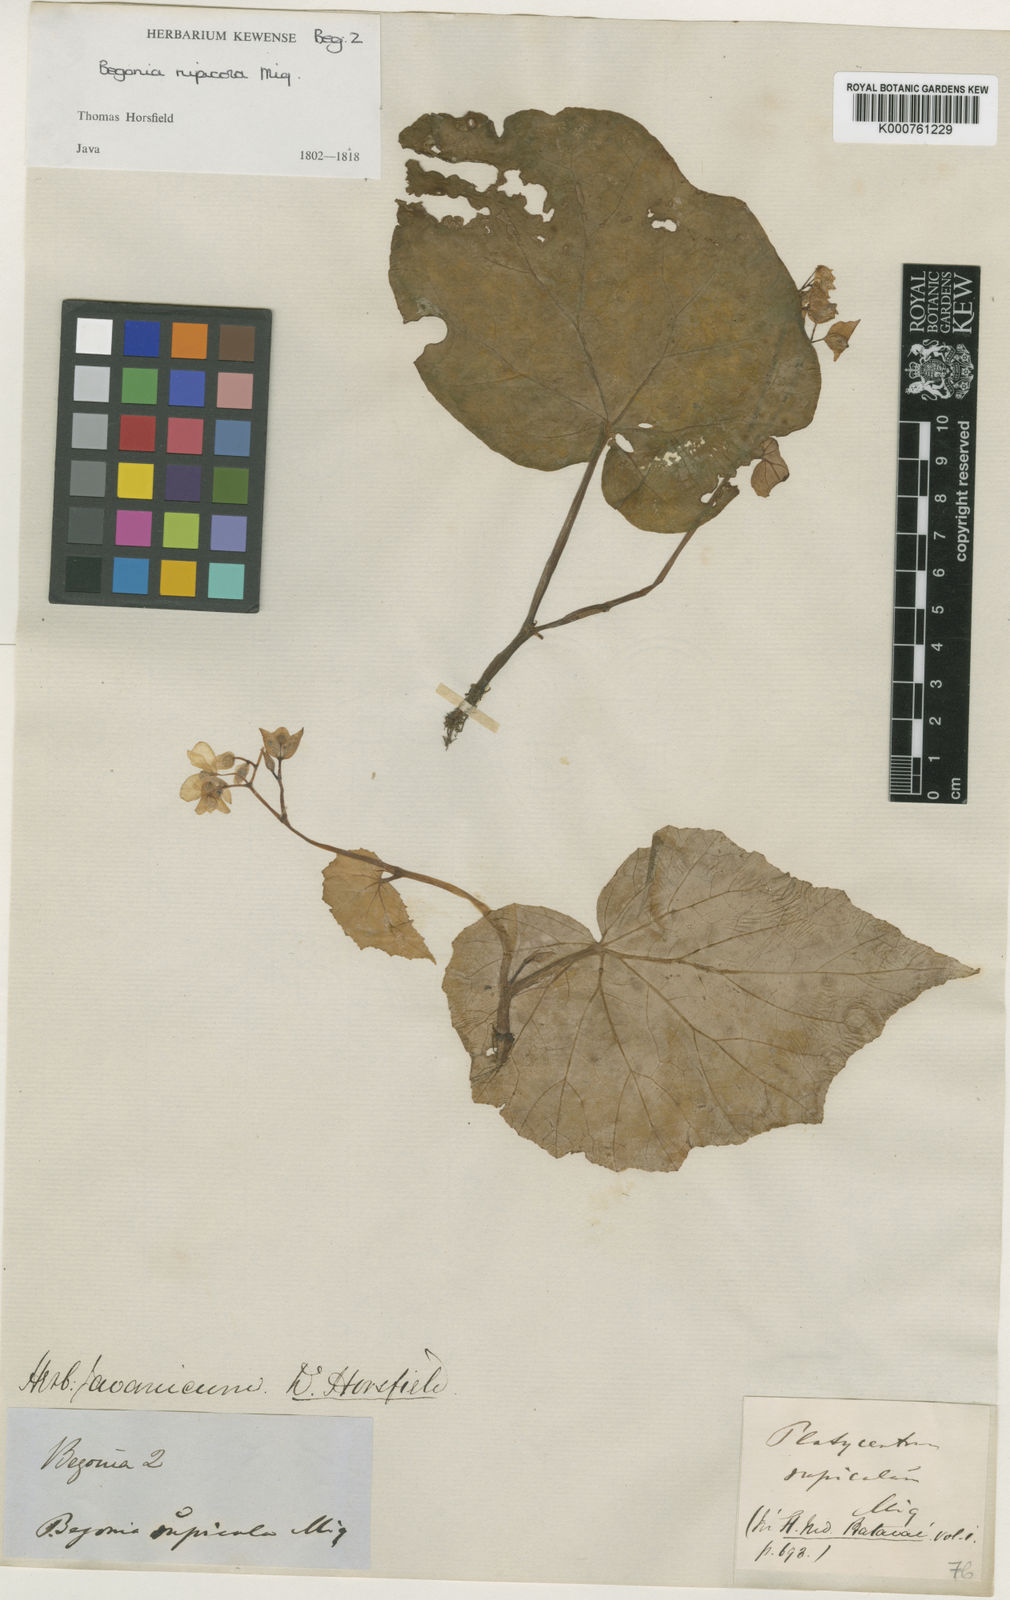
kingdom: Plantae
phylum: Tracheophyta
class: Magnoliopsida
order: Cucurbitales
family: Begoniaceae
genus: Begonia
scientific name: Begonia tenuifolia
